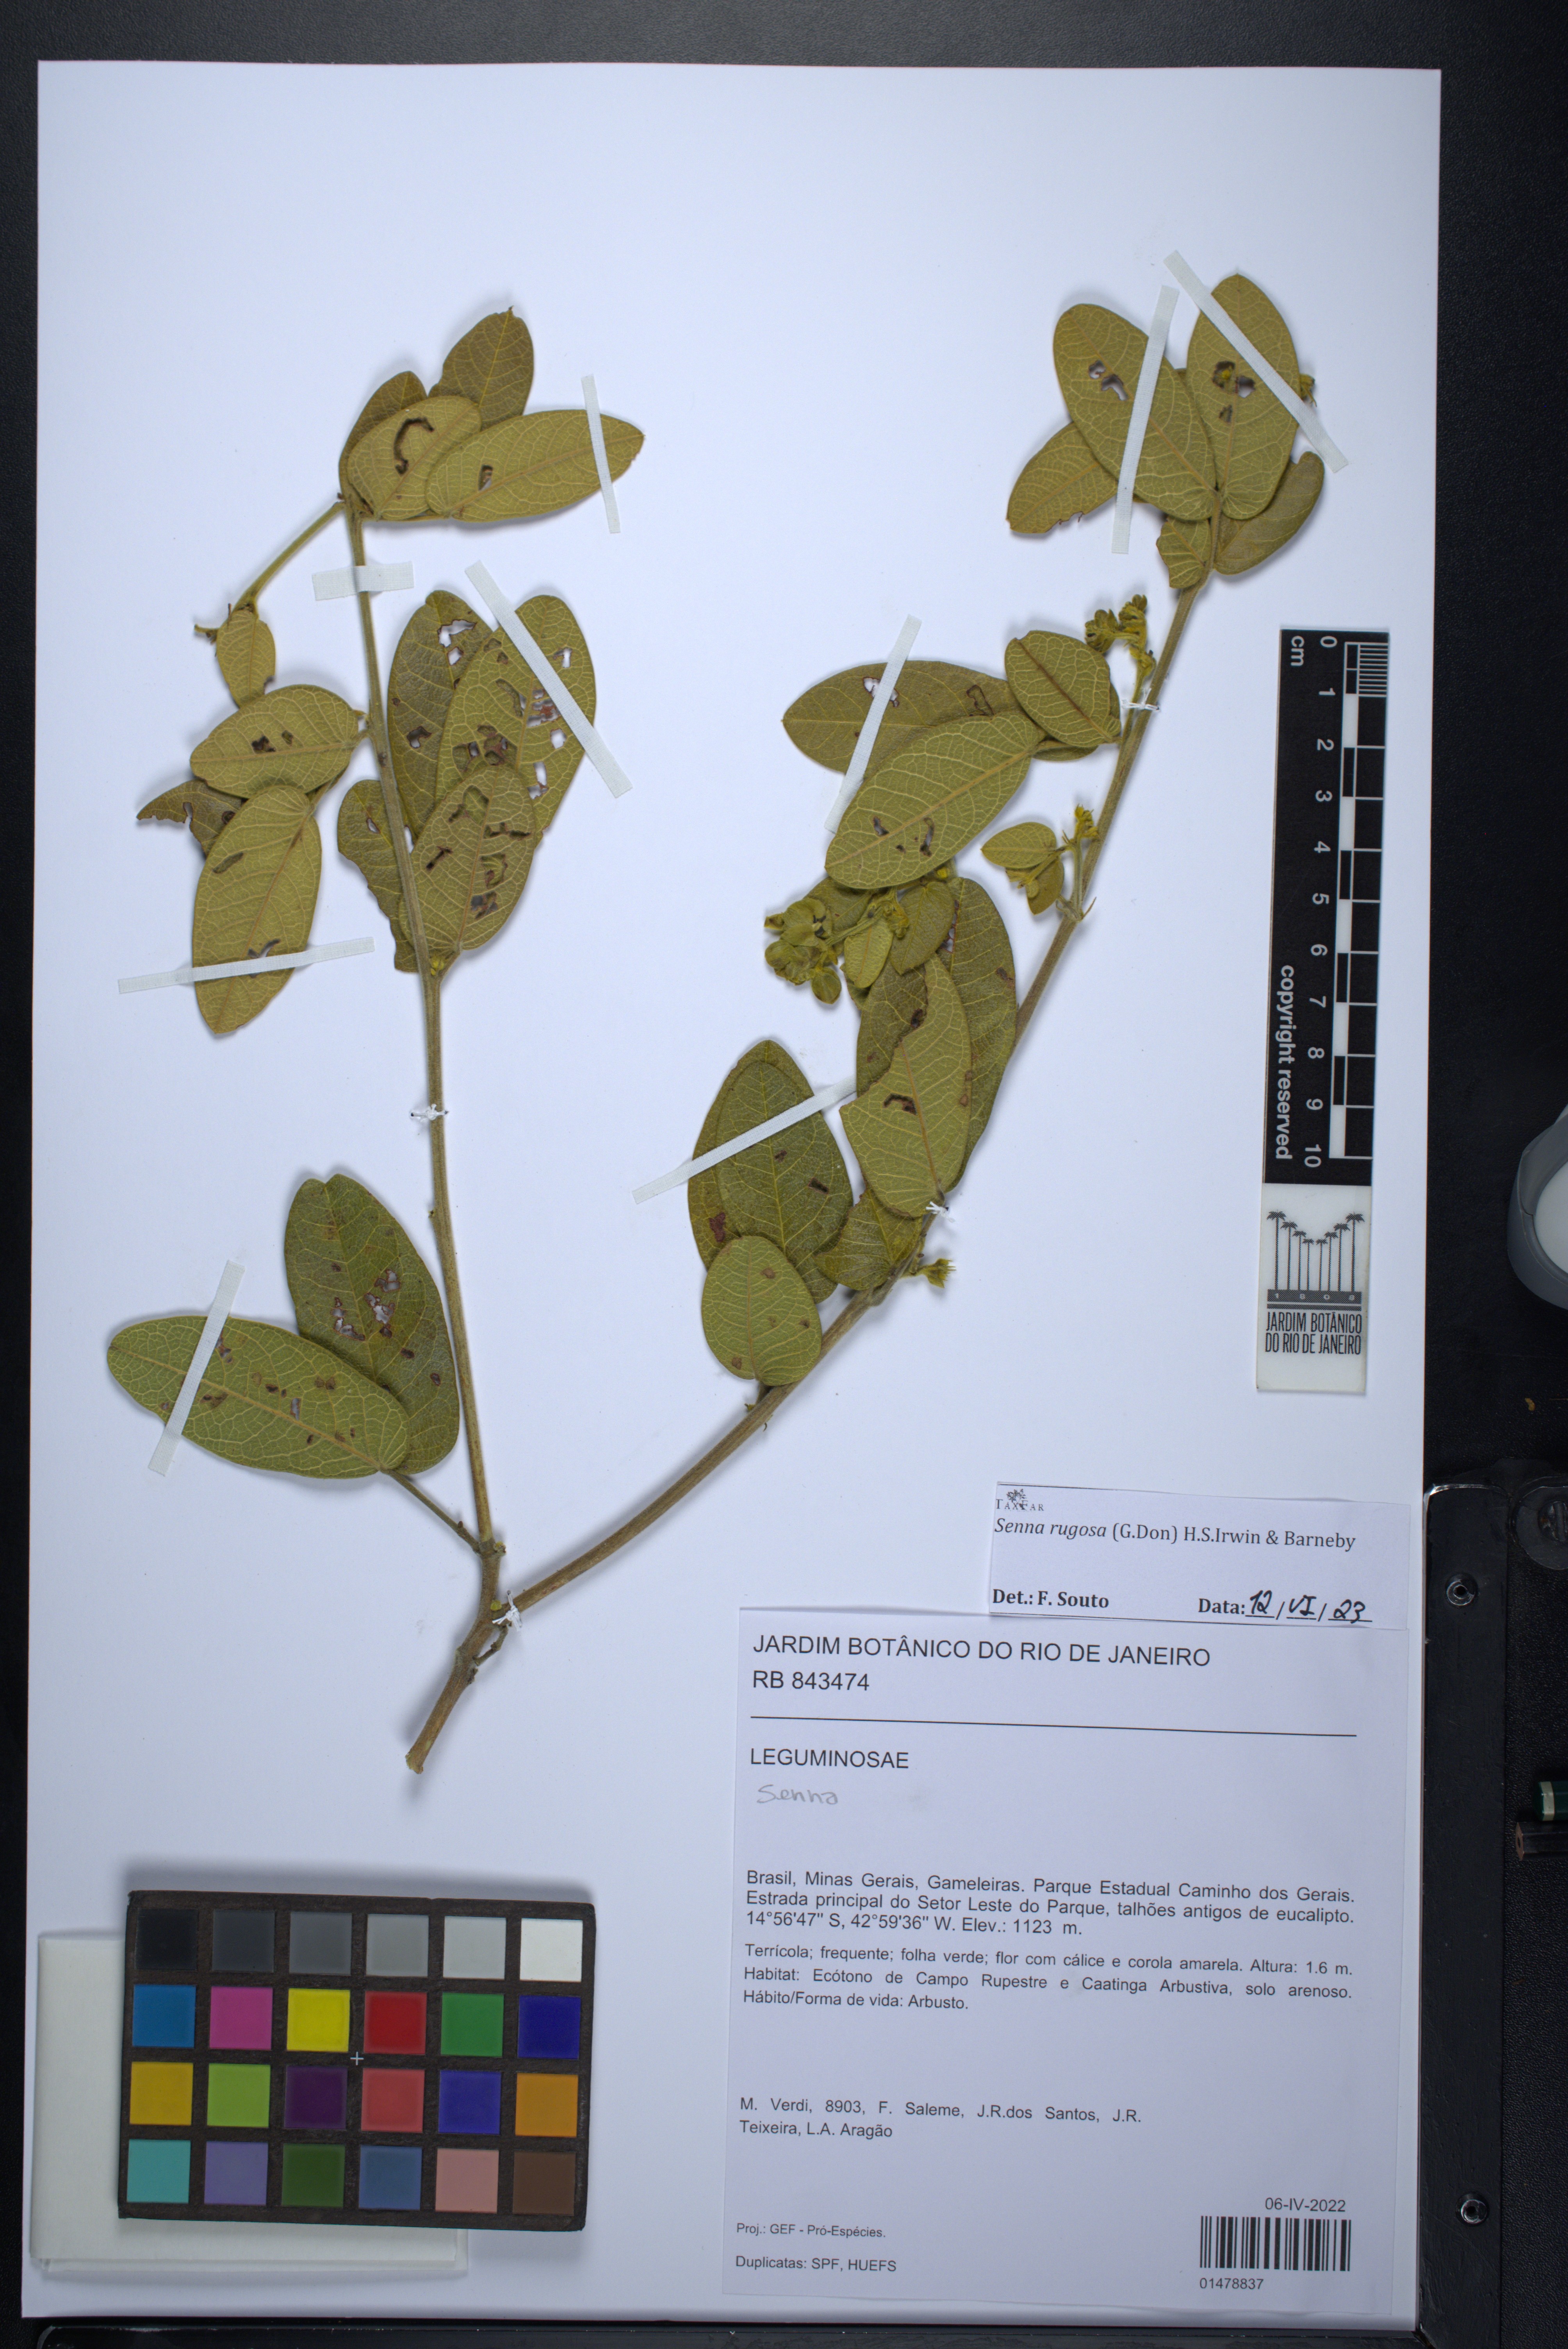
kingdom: Plantae
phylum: Tracheophyta
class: Magnoliopsida
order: Fabales
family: Fabaceae
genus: Senna
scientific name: Senna
